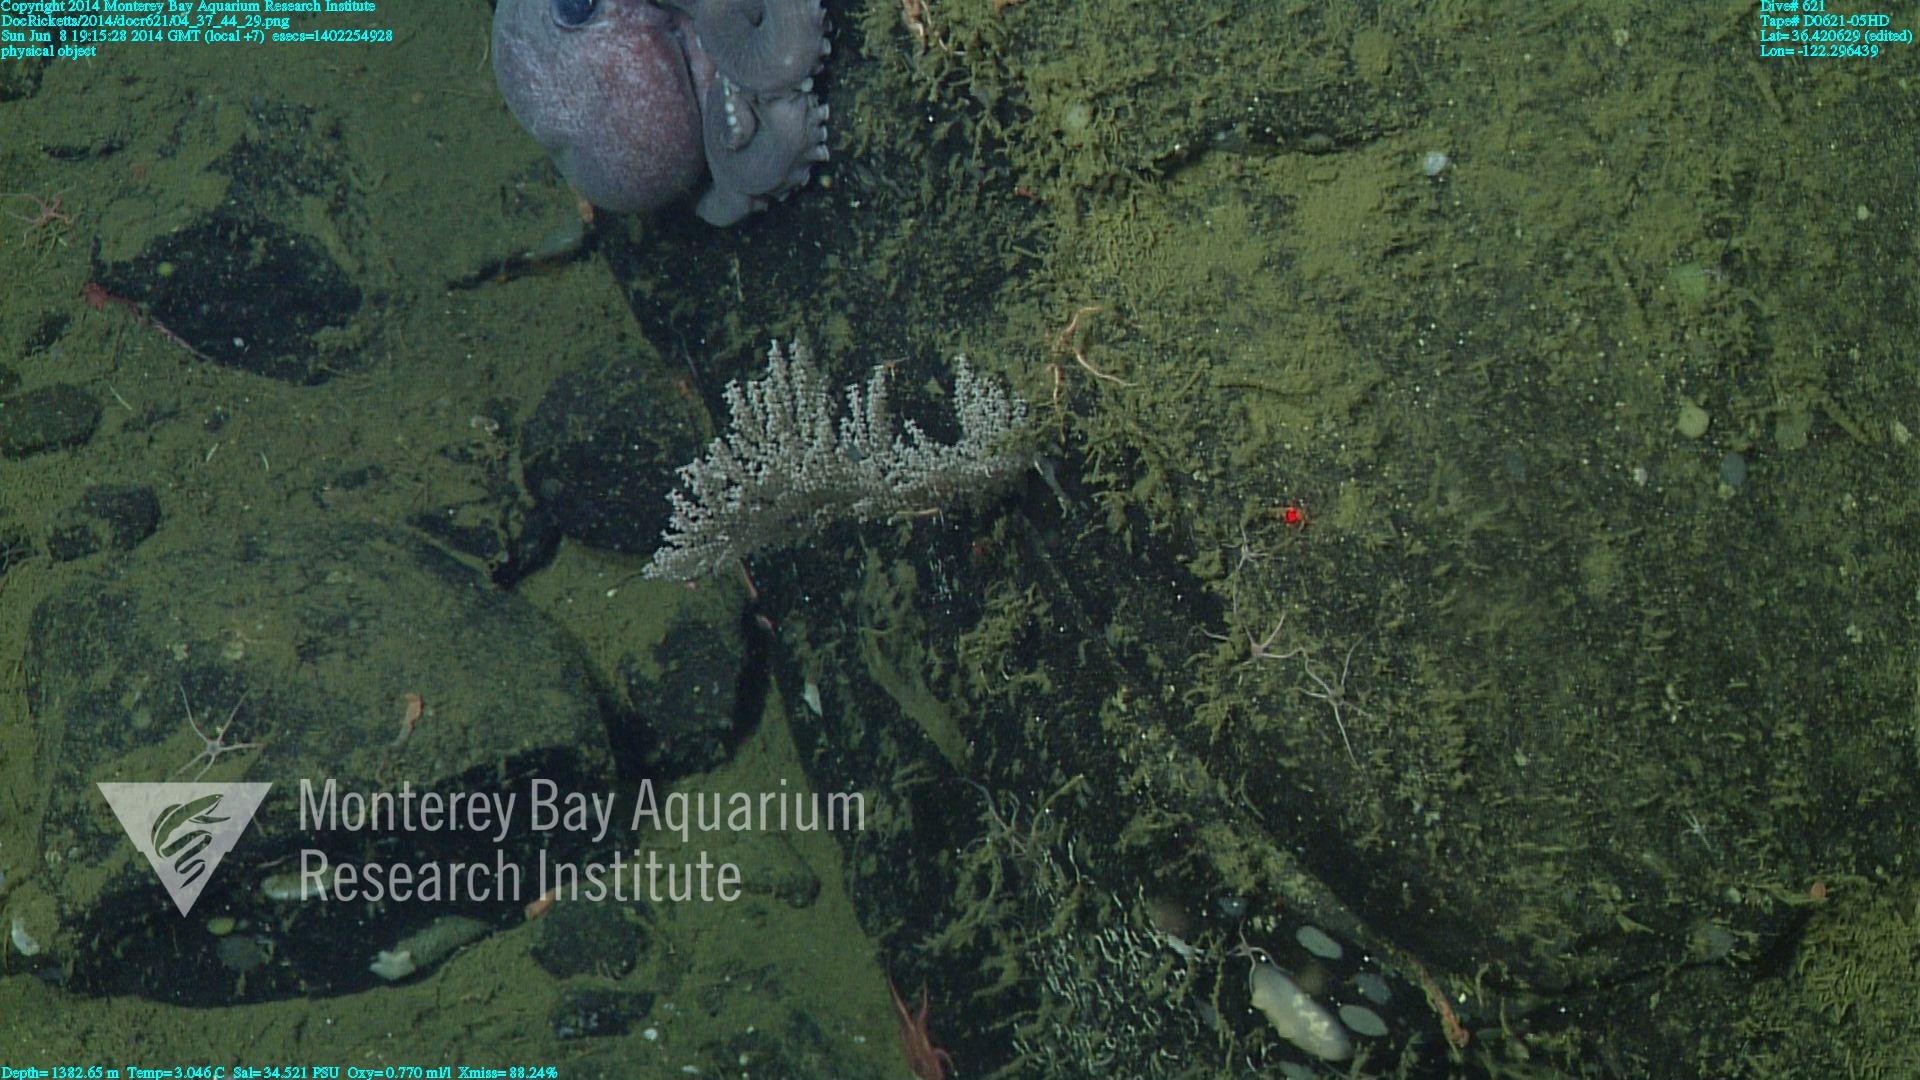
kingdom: Animalia
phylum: Cnidaria
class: Anthozoa
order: Scleralcyonacea
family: Primnoidae
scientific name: Primnoidae
